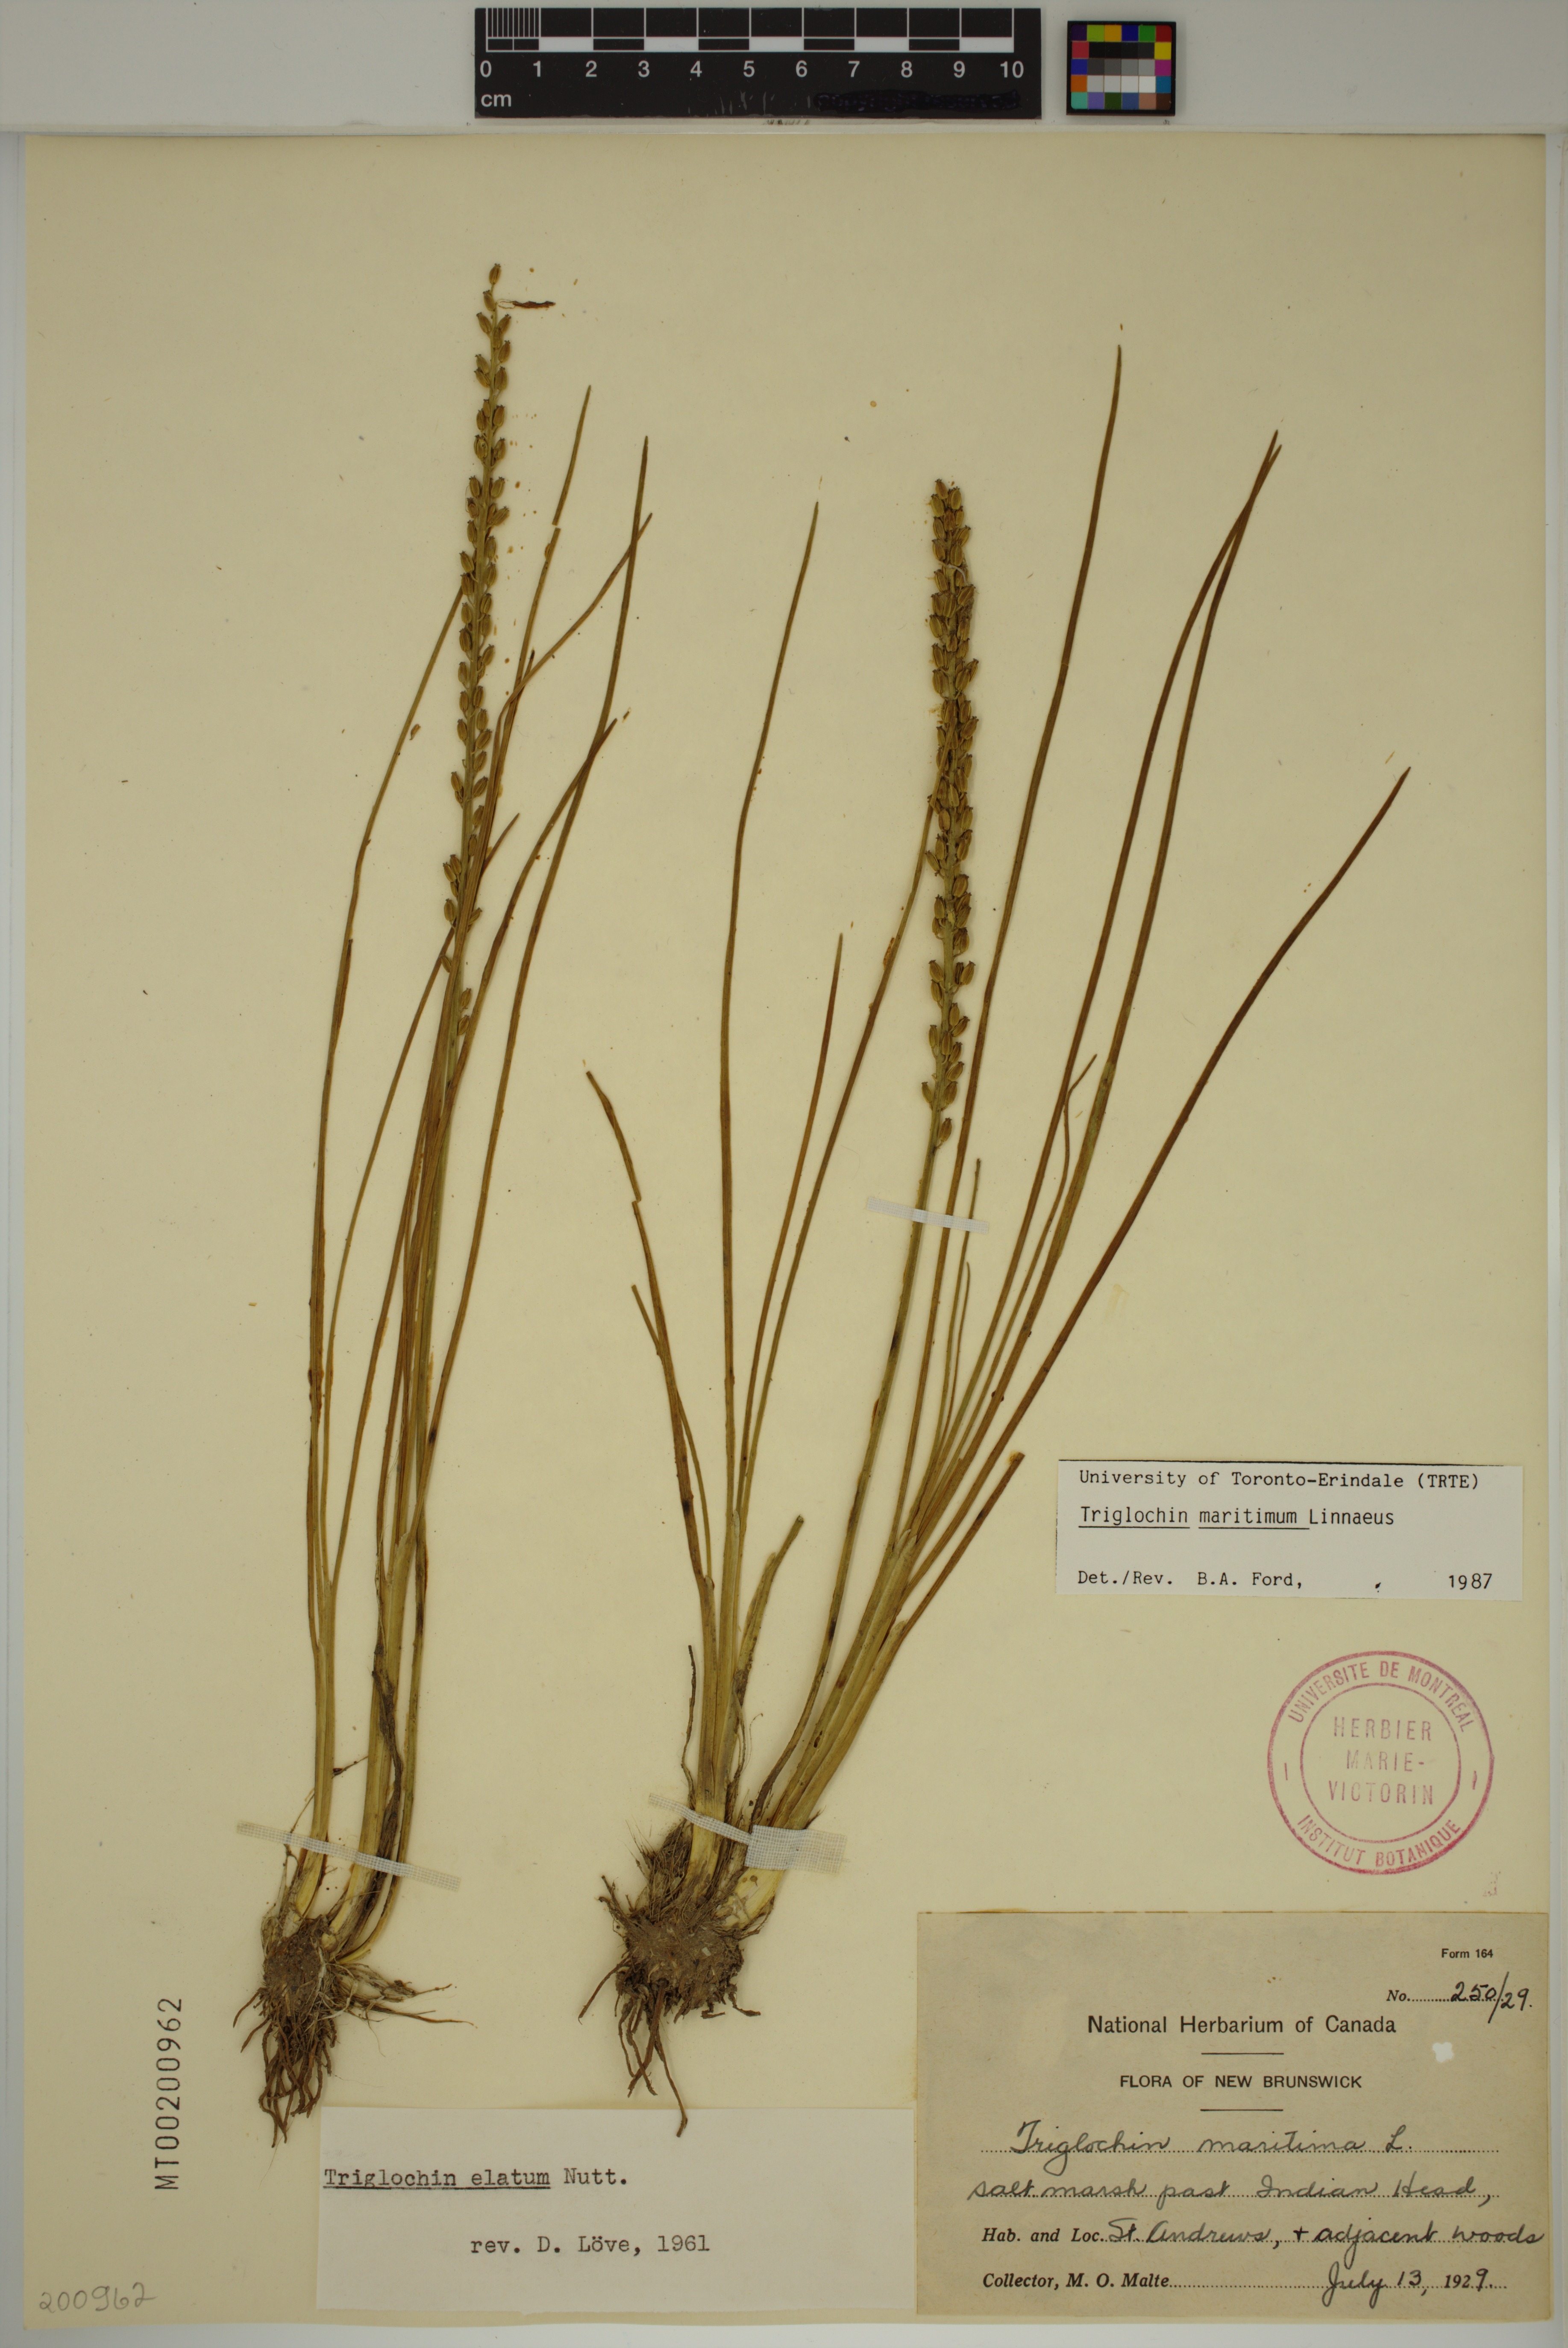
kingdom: Plantae
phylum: Tracheophyta
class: Liliopsida
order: Alismatales
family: Juncaginaceae
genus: Triglochin
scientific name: Triglochin maritima
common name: Sea arrowgrass
